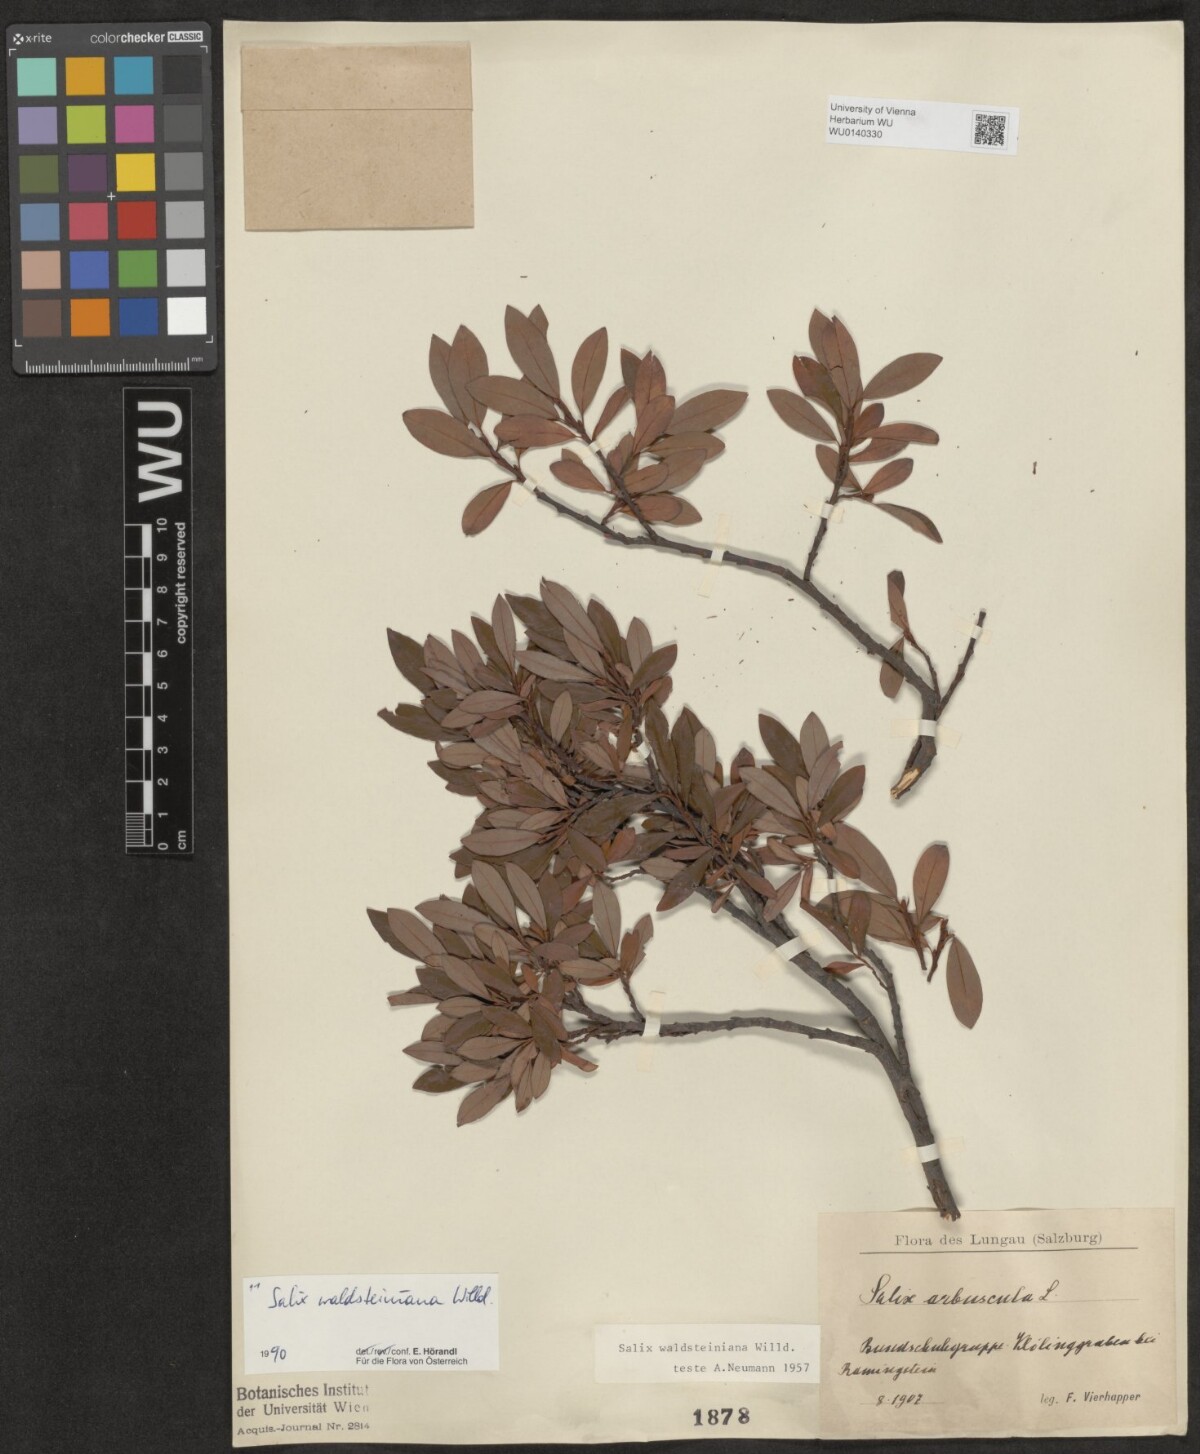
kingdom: Plantae
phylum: Tracheophyta
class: Magnoliopsida
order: Malpighiales
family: Salicaceae
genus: Salix
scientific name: Salix waldsteiniana
